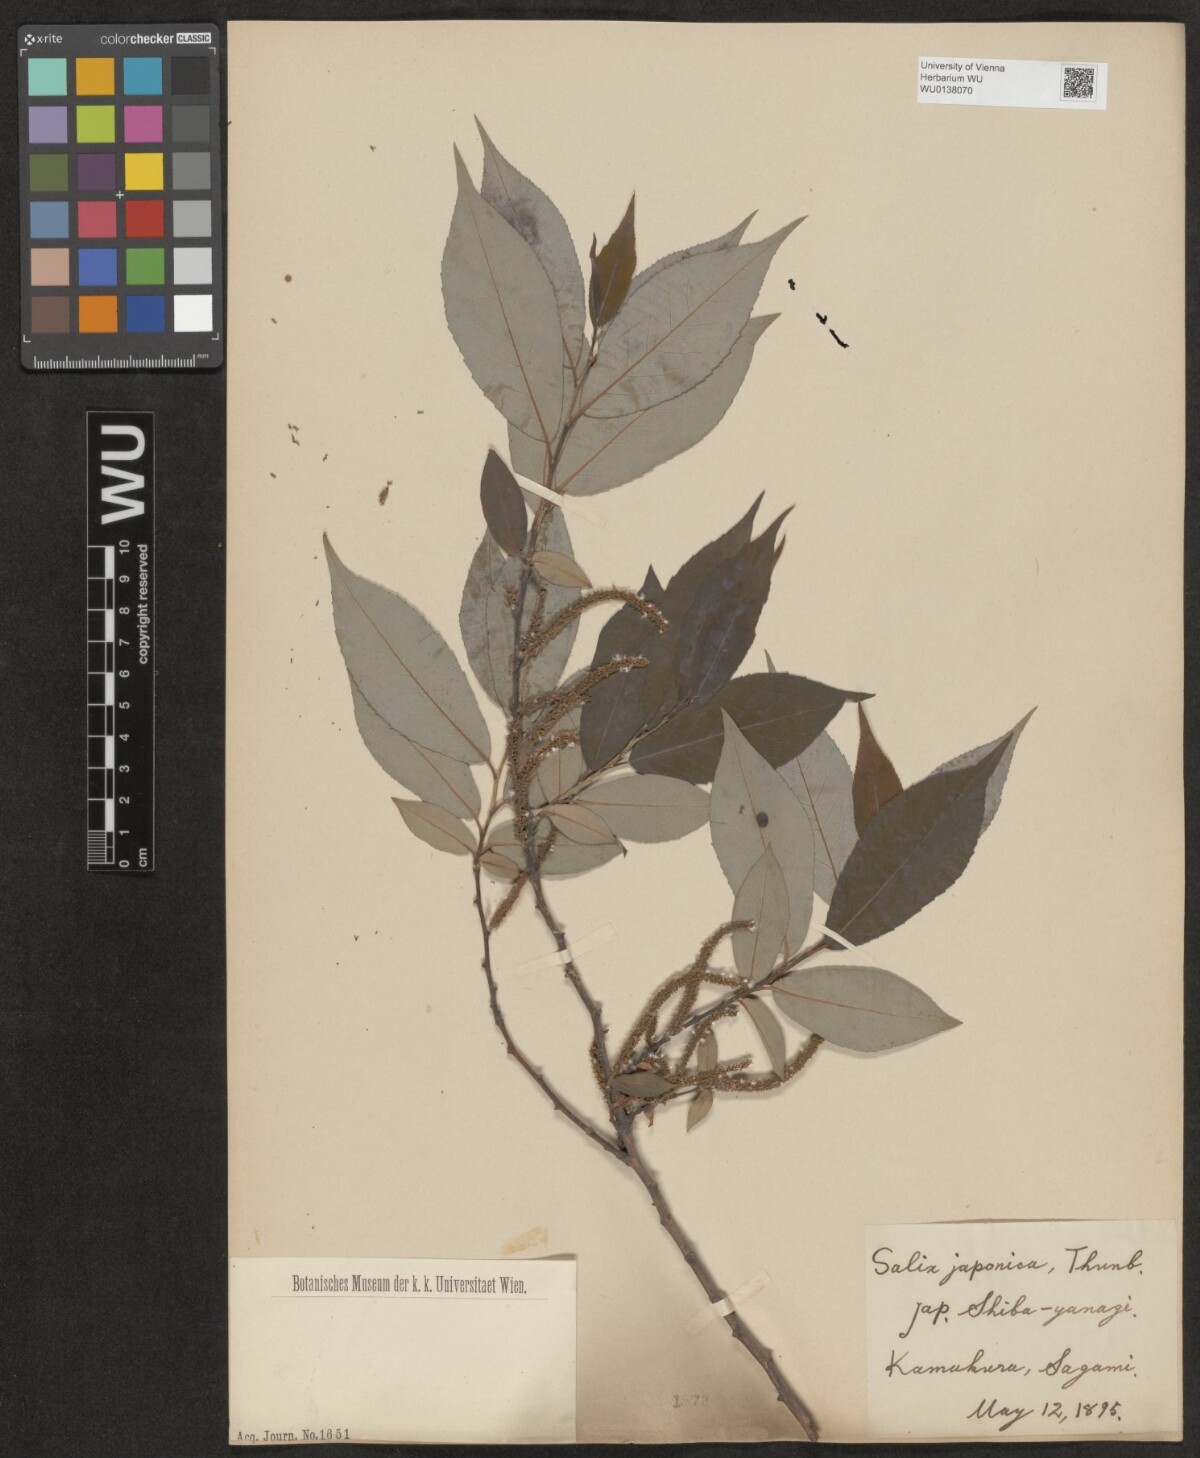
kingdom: Plantae
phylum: Tracheophyta
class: Magnoliopsida
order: Malpighiales
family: Salicaceae
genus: Salix
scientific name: Salix japonica
